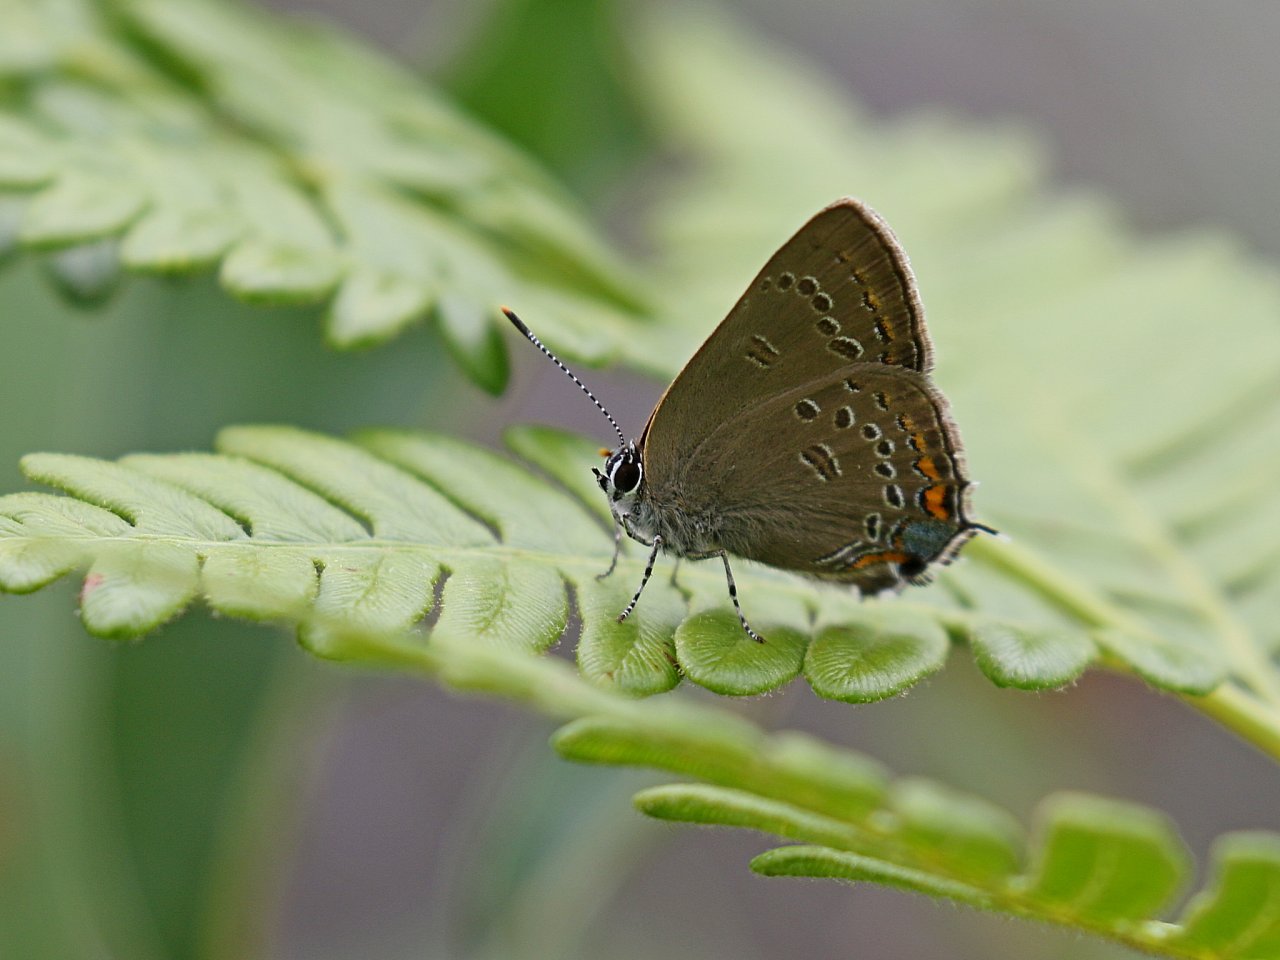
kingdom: Animalia
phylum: Arthropoda
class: Insecta
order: Lepidoptera
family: Lycaenidae
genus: Satyrium
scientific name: Satyrium edwardsii
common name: Edwards' Hairstreak
